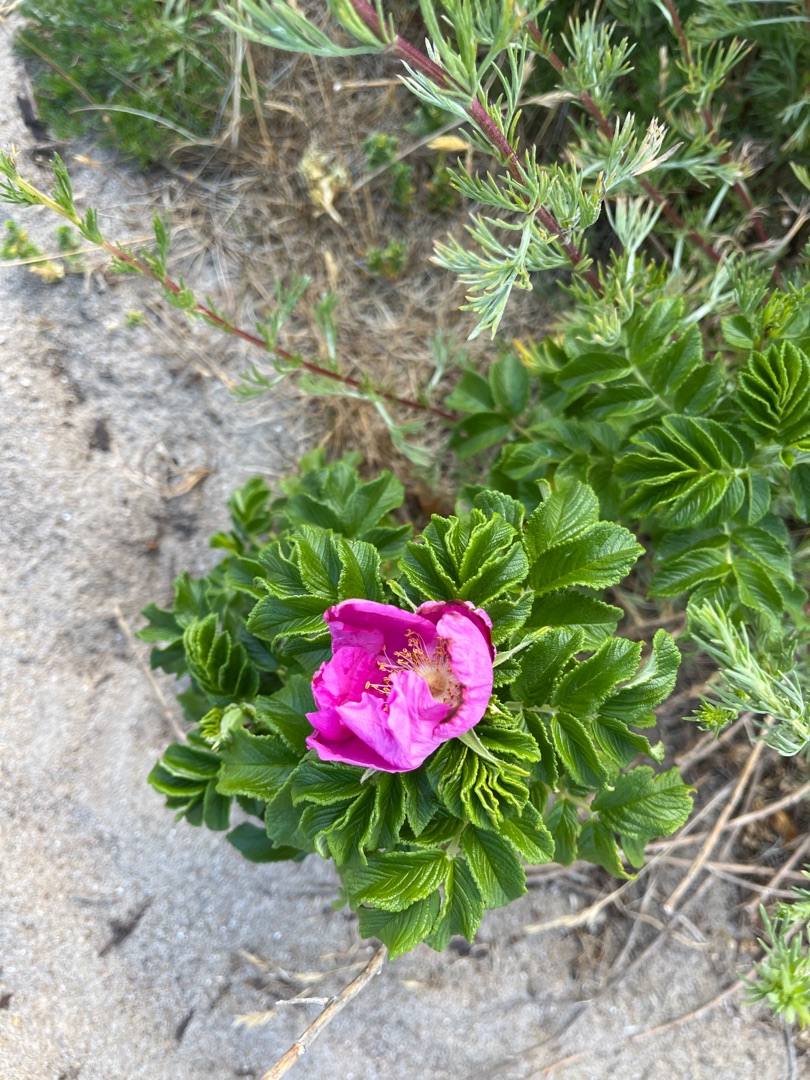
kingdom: Plantae
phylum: Tracheophyta
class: Magnoliopsida
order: Rosales
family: Rosaceae
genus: Rosa
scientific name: Rosa rugosa
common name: Rynket rose
